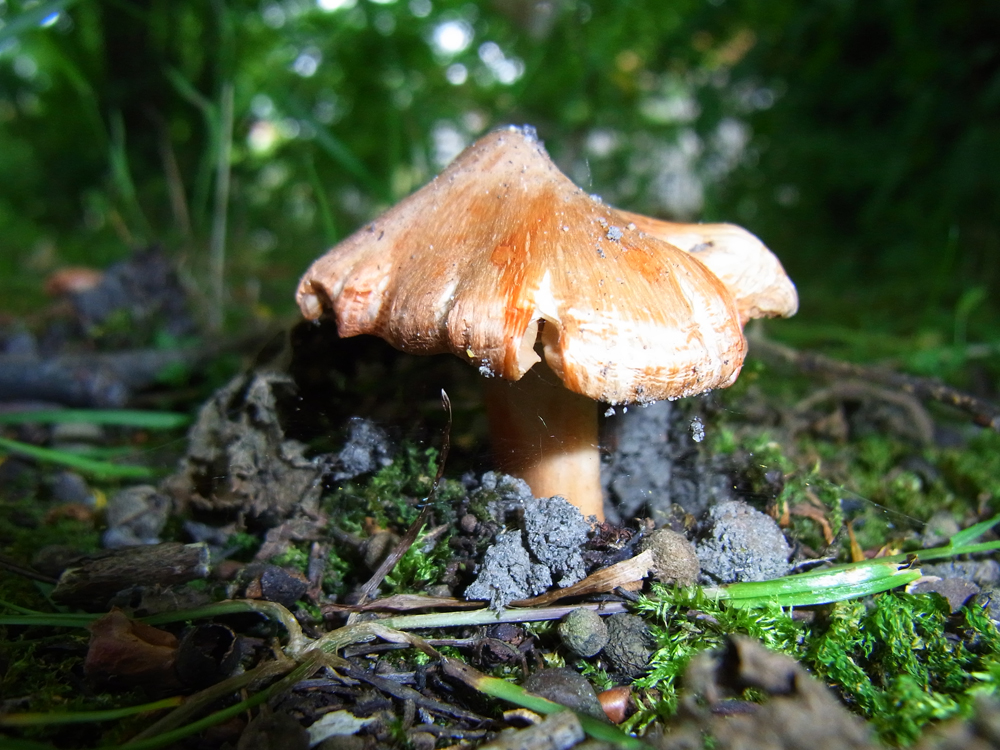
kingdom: Fungi
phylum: Basidiomycota
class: Agaricomycetes
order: Agaricales
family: Inocybaceae
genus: Inosperma
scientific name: Inosperma erubescens
